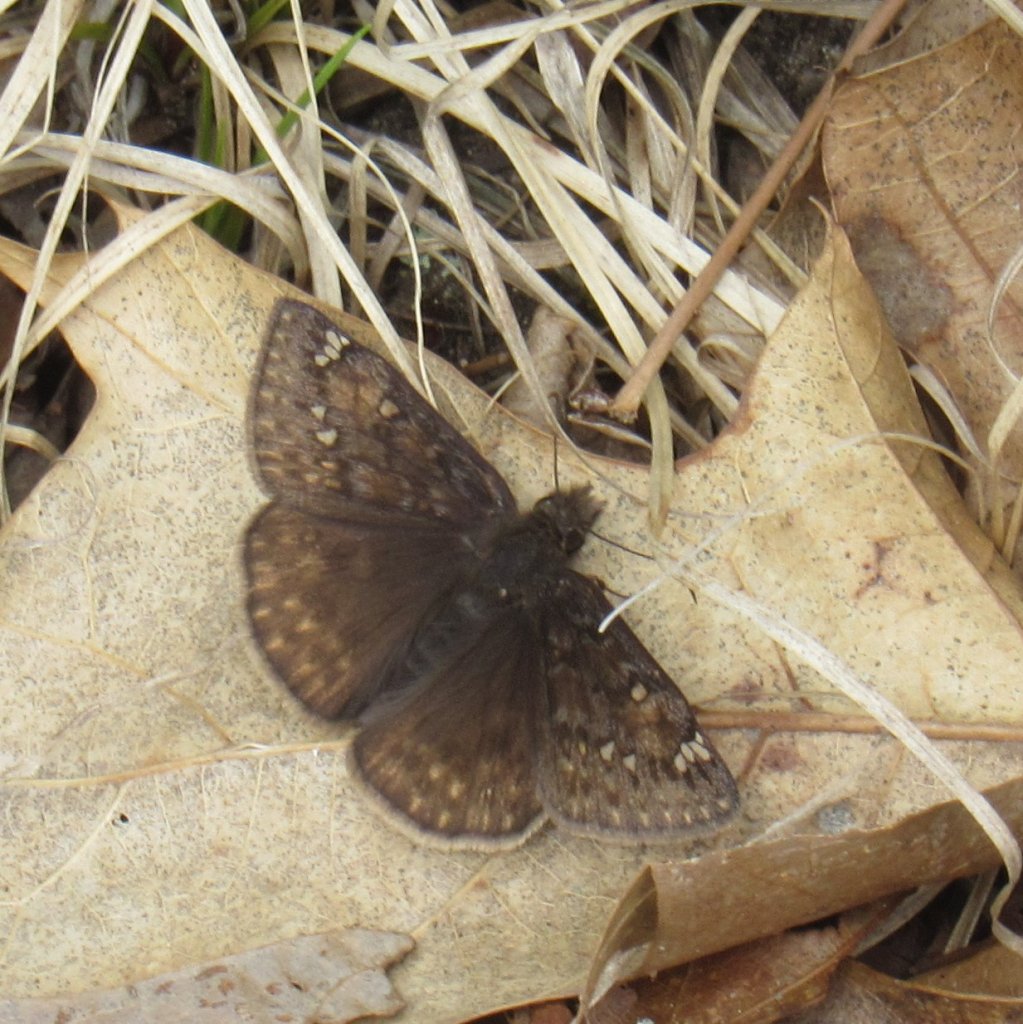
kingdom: Animalia
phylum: Arthropoda
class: Insecta
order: Lepidoptera
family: Hesperiidae
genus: Gesta
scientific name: Gesta
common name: Horace's Duskywing
